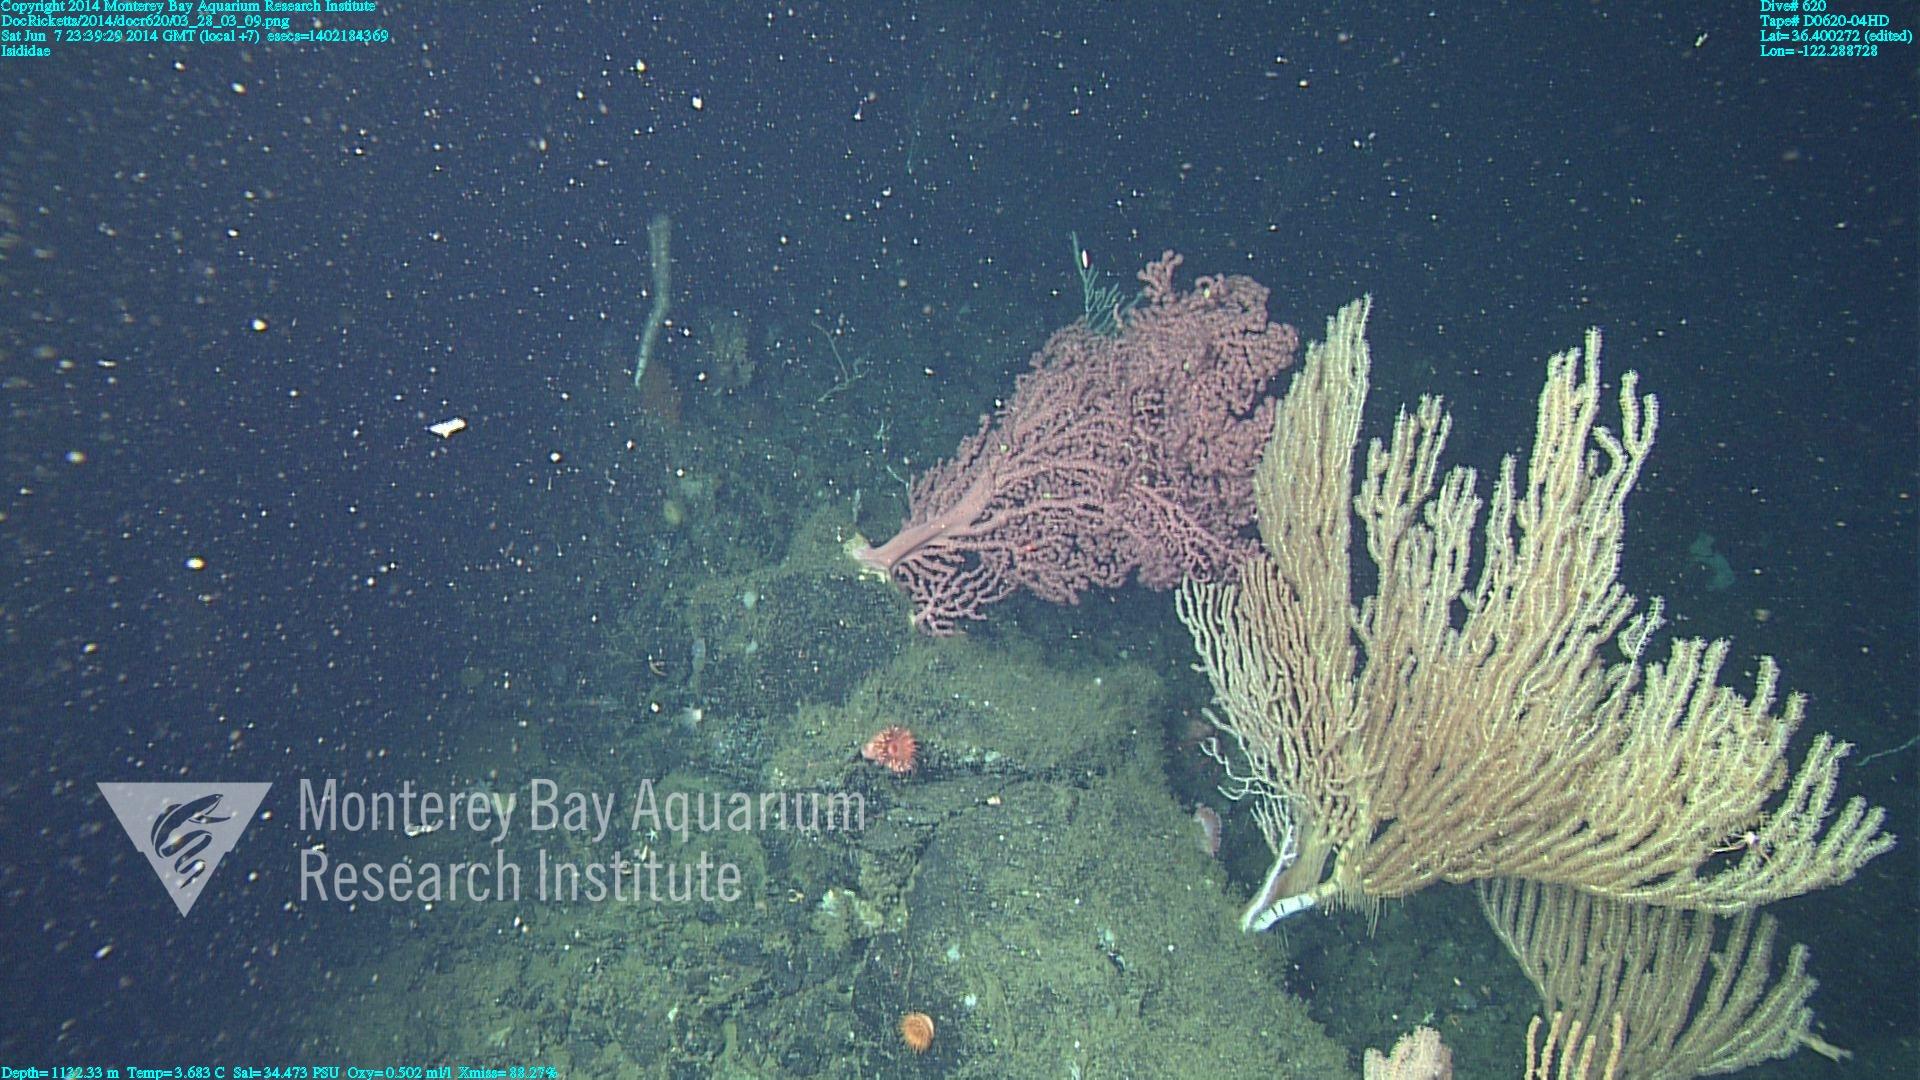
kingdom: Animalia
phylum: Cnidaria
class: Anthozoa
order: Scleralcyonacea
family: Keratoisididae
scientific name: Keratoisididae
